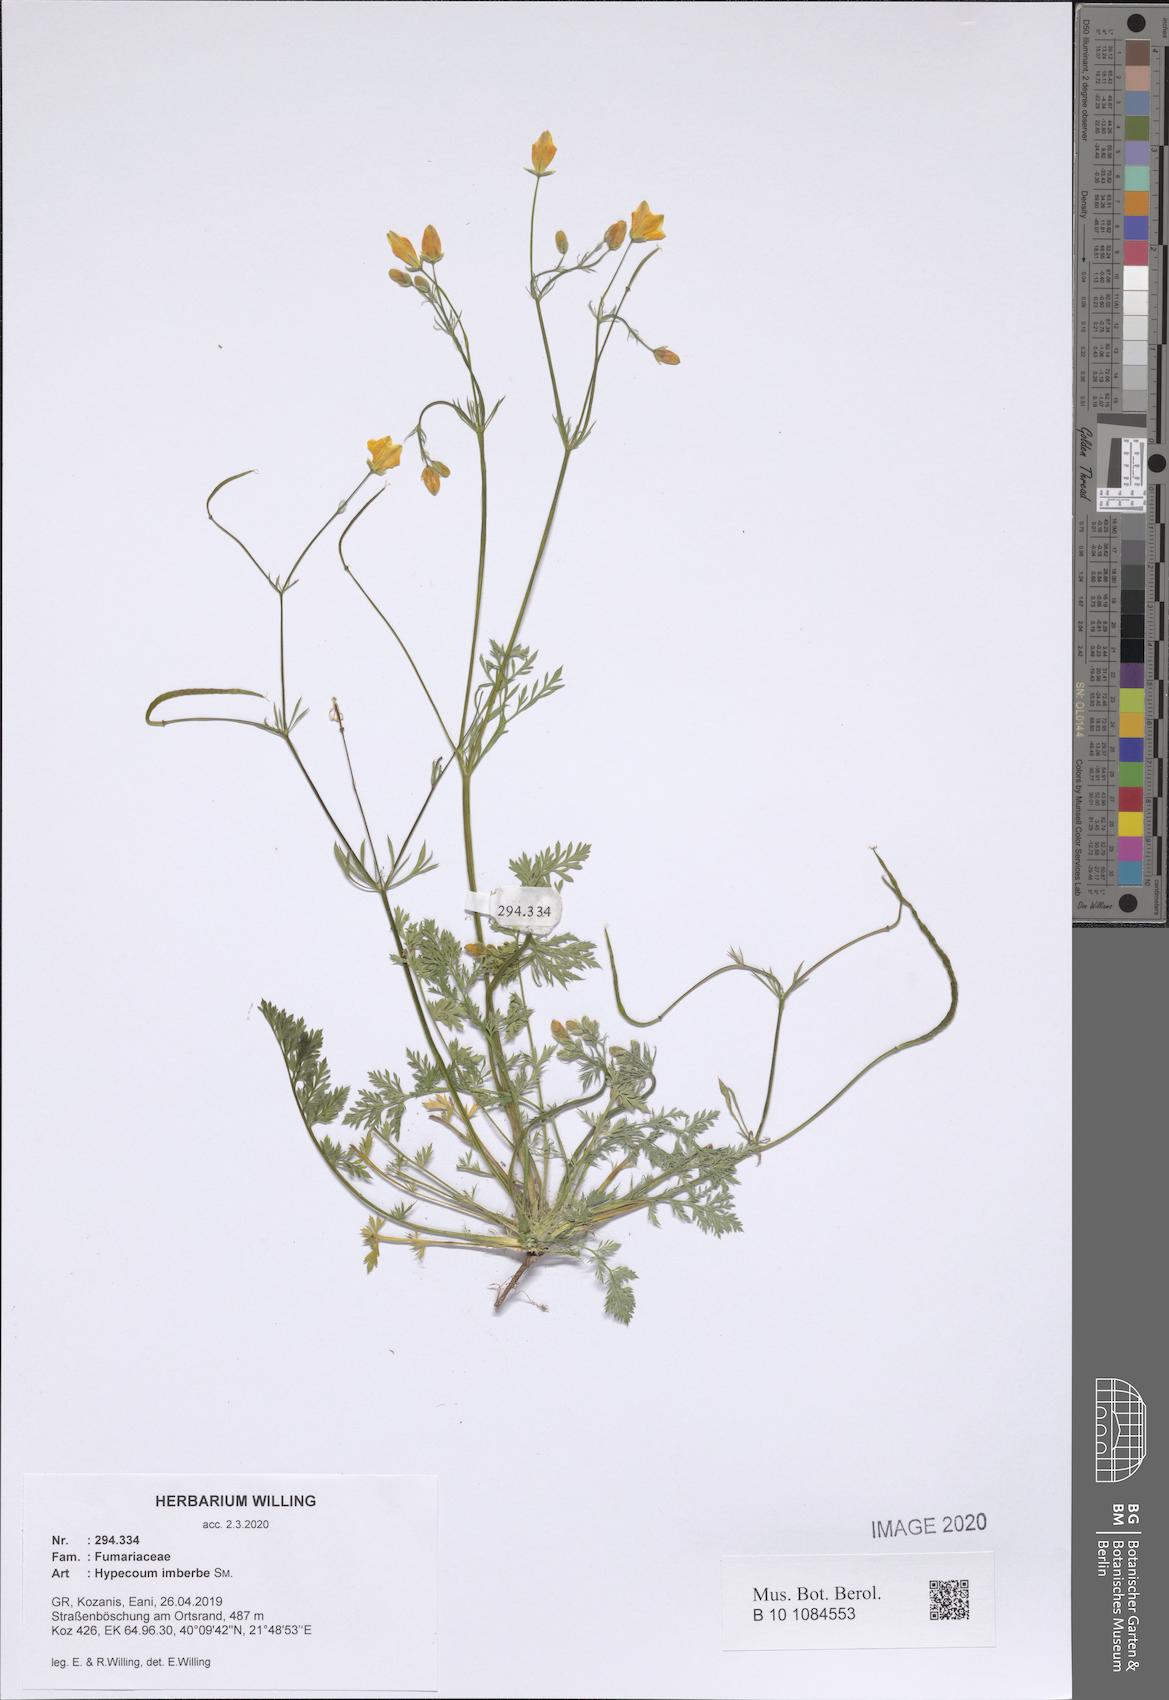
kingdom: Plantae
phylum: Tracheophyta
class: Magnoliopsida
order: Ranunculales
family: Papaveraceae
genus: Hypecoum
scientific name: Hypecoum imberbe
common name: Sicklefruit hypecoum
